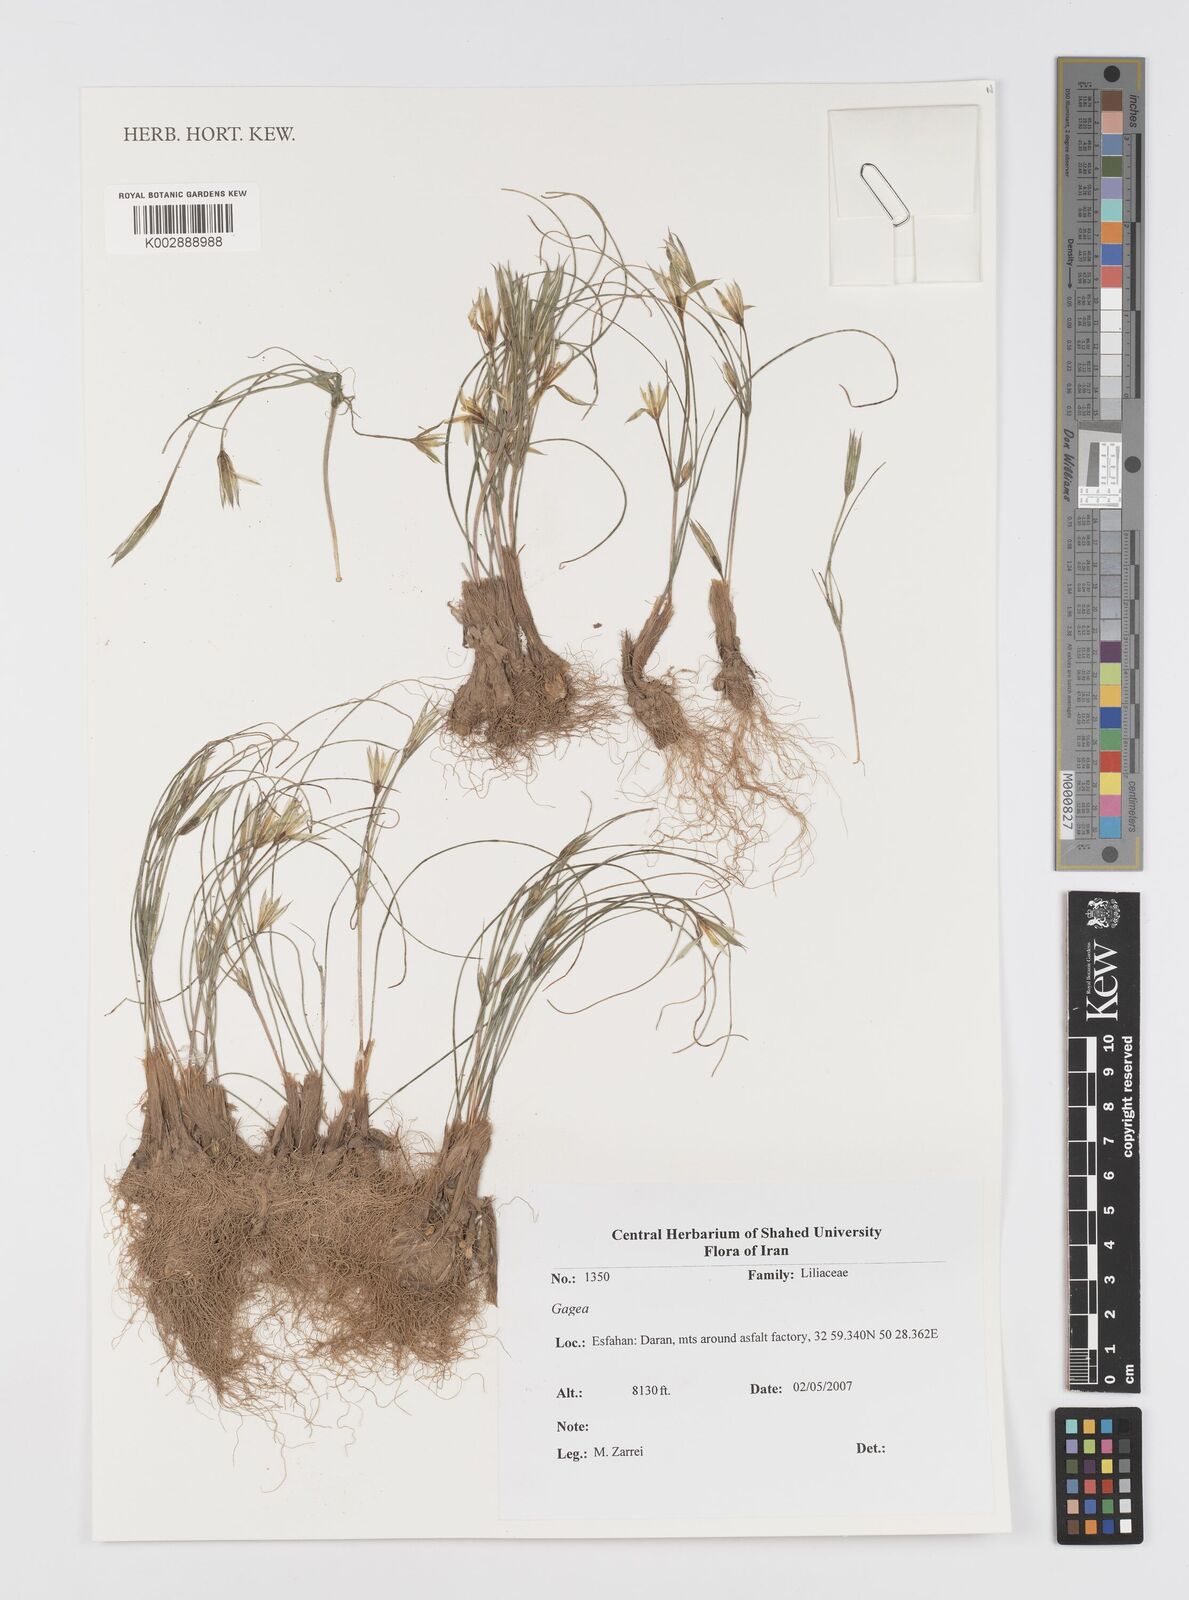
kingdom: Plantae
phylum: Tracheophyta
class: Liliopsida
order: Liliales
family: Liliaceae
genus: Gagea
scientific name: Gagea
